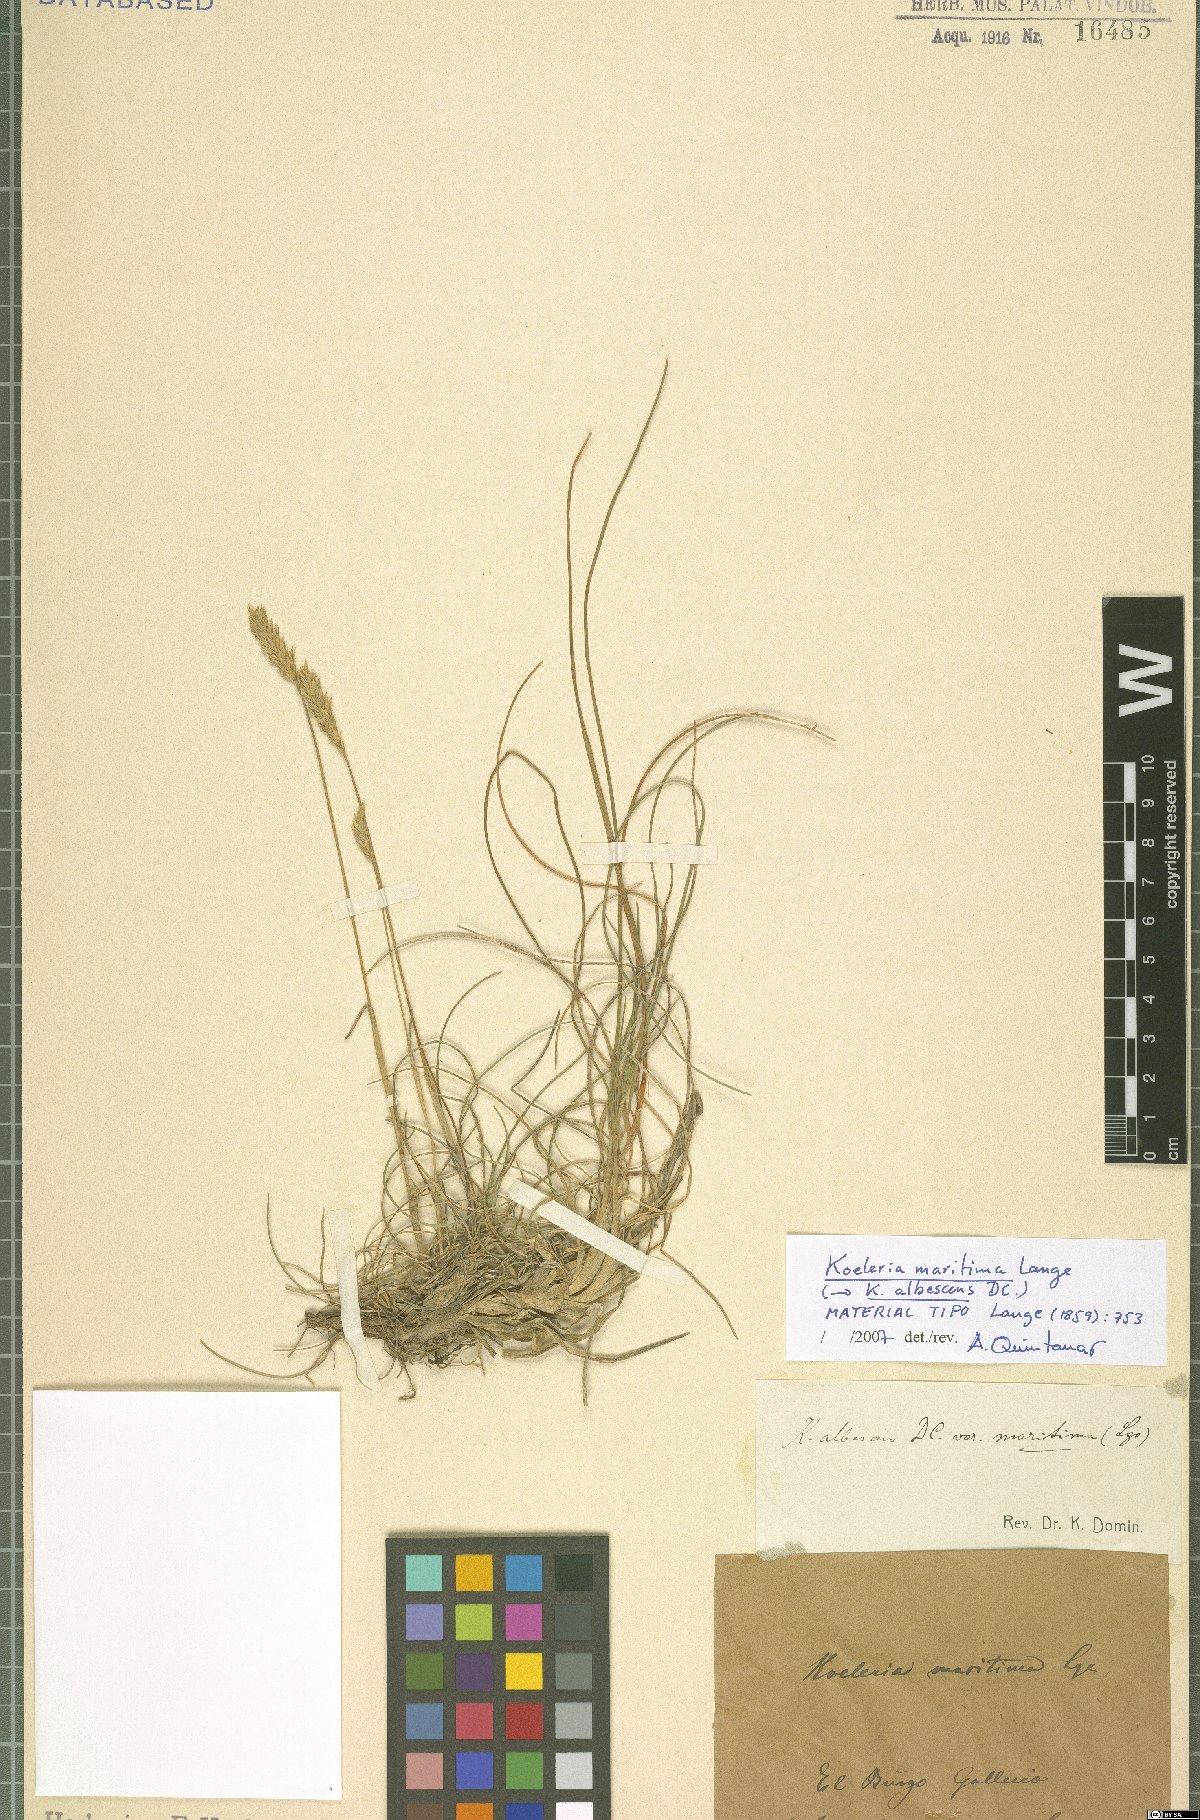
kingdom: Plantae
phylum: Tracheophyta
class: Liliopsida
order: Poales
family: Poaceae
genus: Koeleria
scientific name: Koeleria pyramidata
